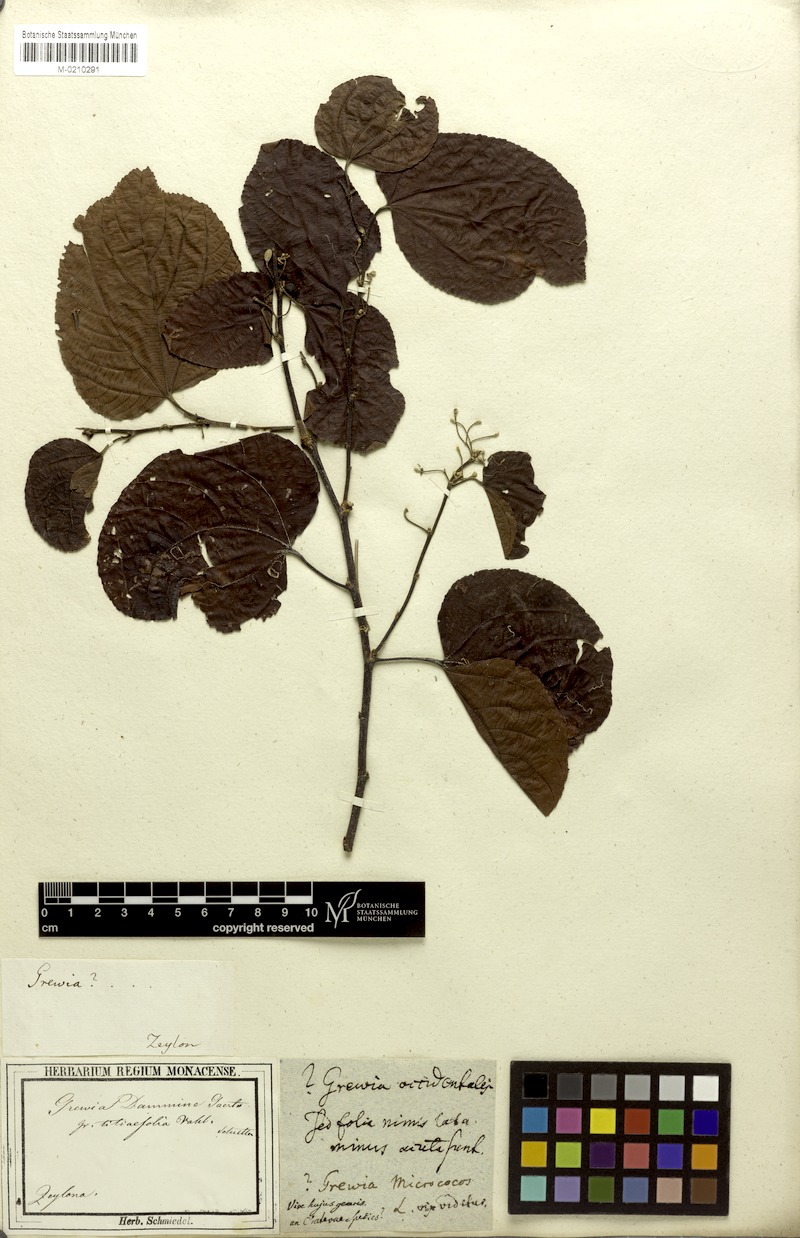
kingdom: Plantae
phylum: Tracheophyta
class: Magnoliopsida
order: Malvales
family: Malvaceae
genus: Grewia
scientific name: Grewia tiliifolia
